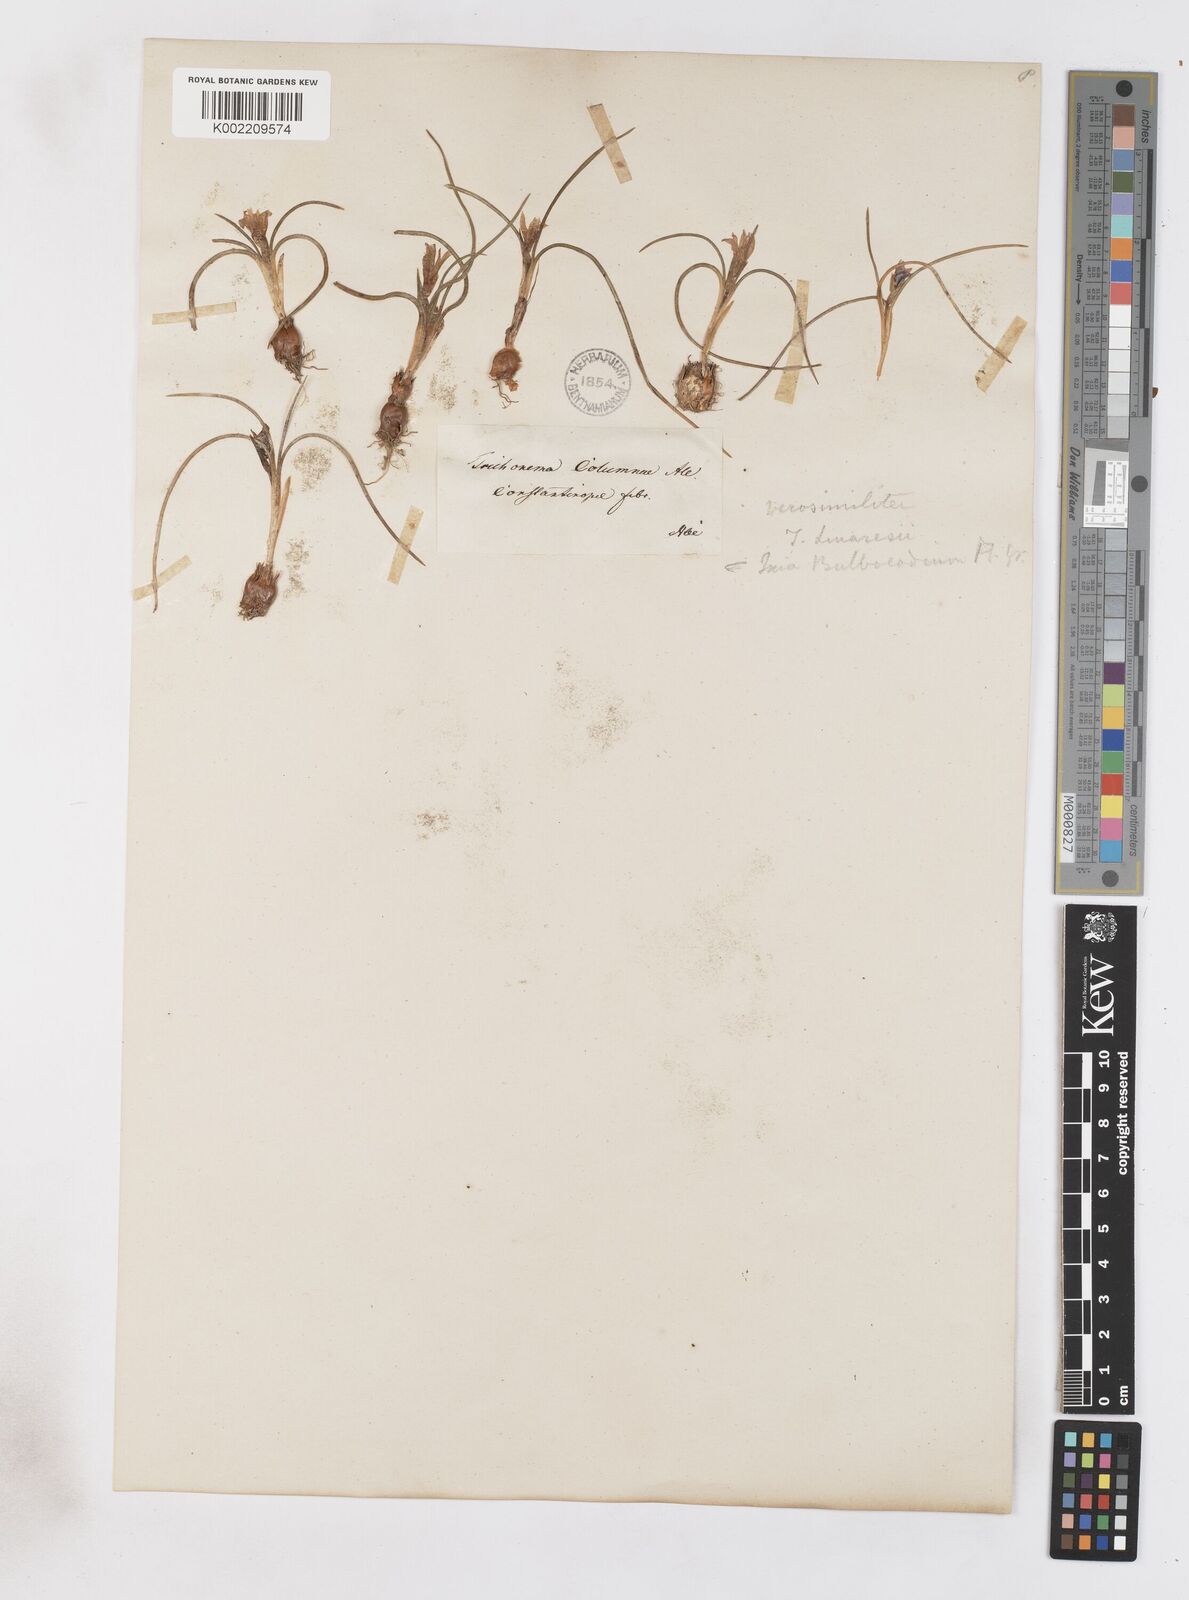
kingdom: Plantae
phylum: Tracheophyta
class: Liliopsida
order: Asparagales
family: Iridaceae
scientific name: Iridaceae
